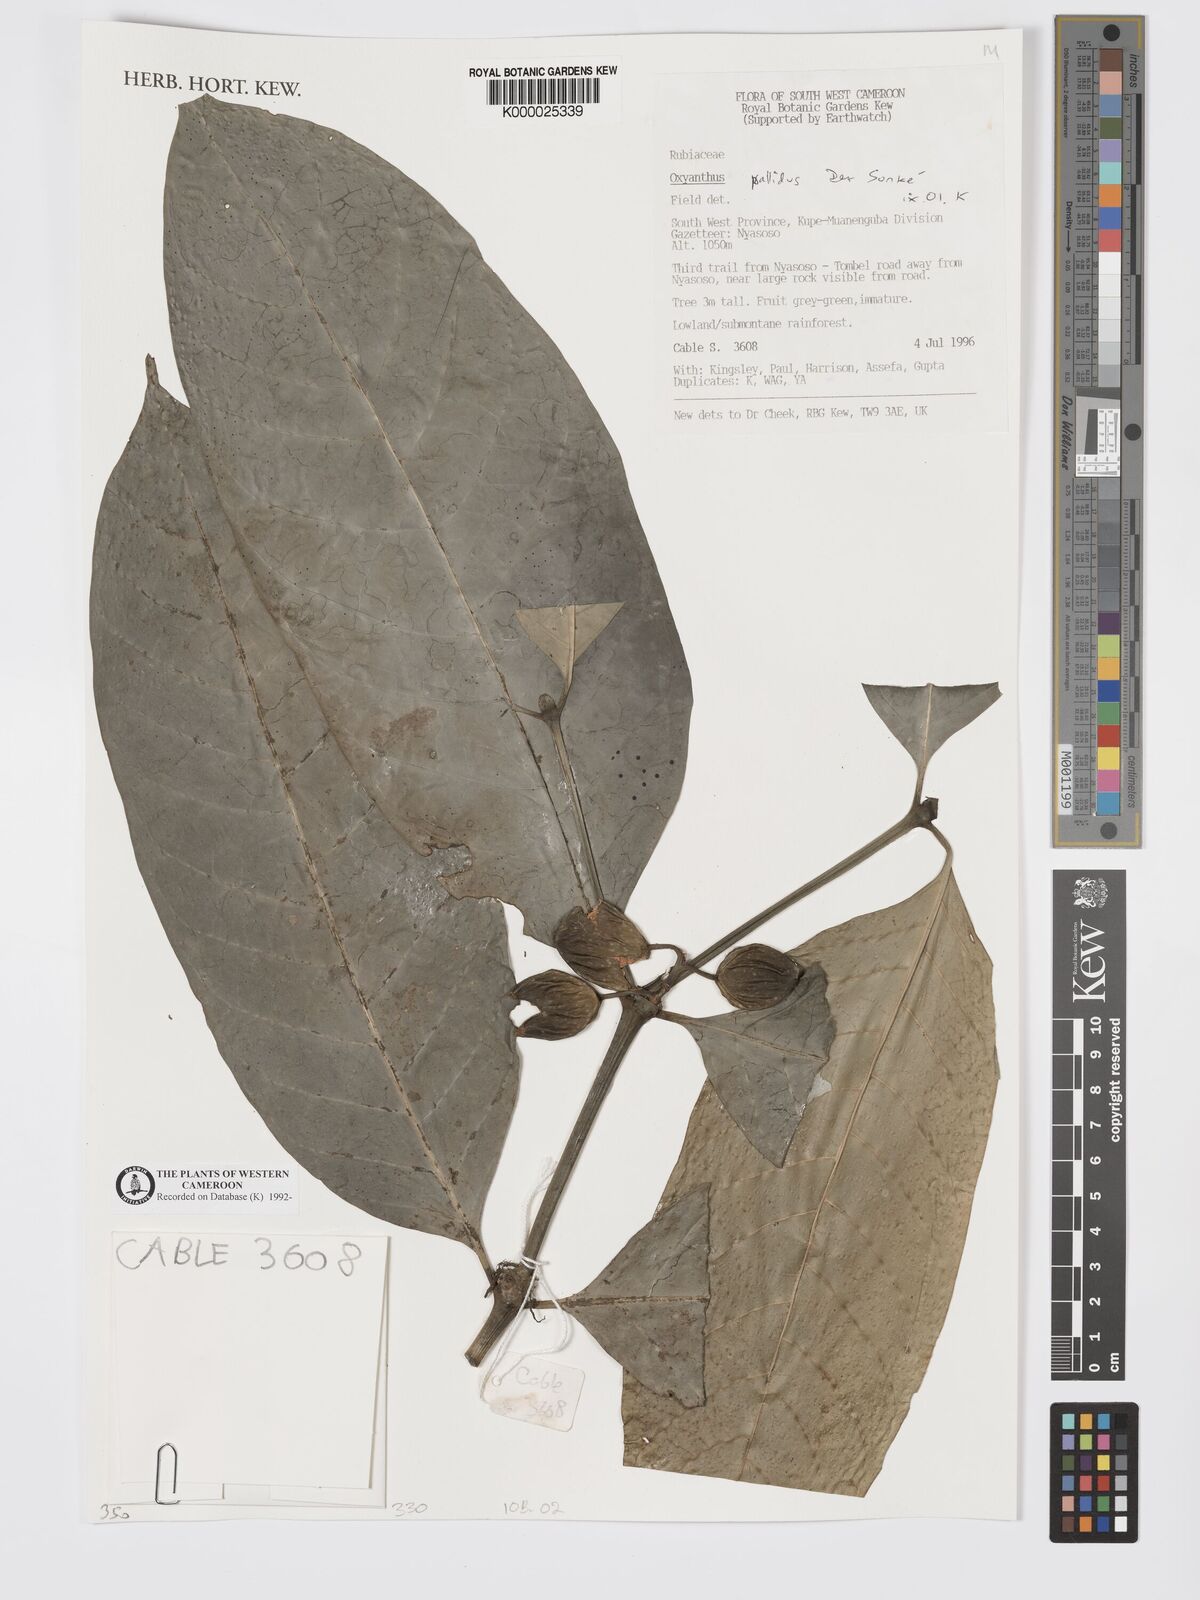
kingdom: Plantae
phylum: Tracheophyta
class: Magnoliopsida
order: Gentianales
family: Rubiaceae
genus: Oxyanthus
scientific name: Oxyanthus pallidus
